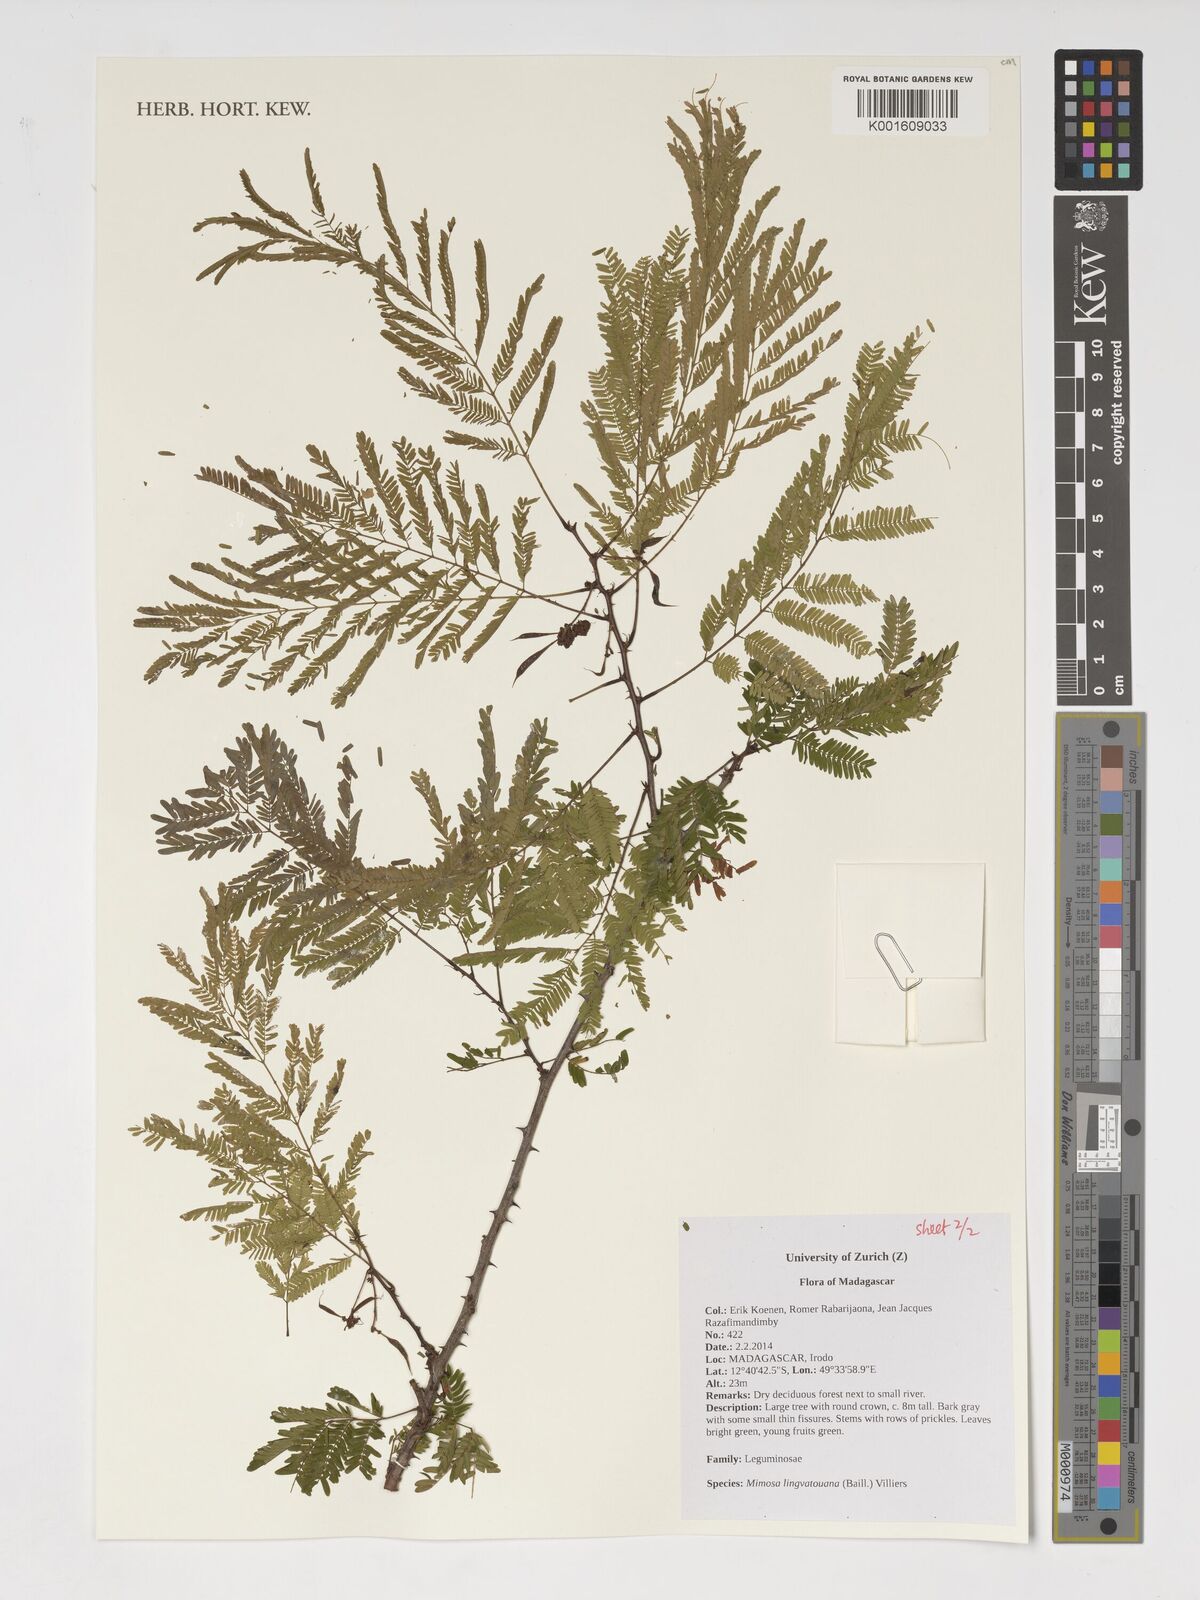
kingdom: Plantae
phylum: Tracheophyta
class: Magnoliopsida
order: Fabales
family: Fabaceae
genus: Mimosa
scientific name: Mimosa lingvatouana
